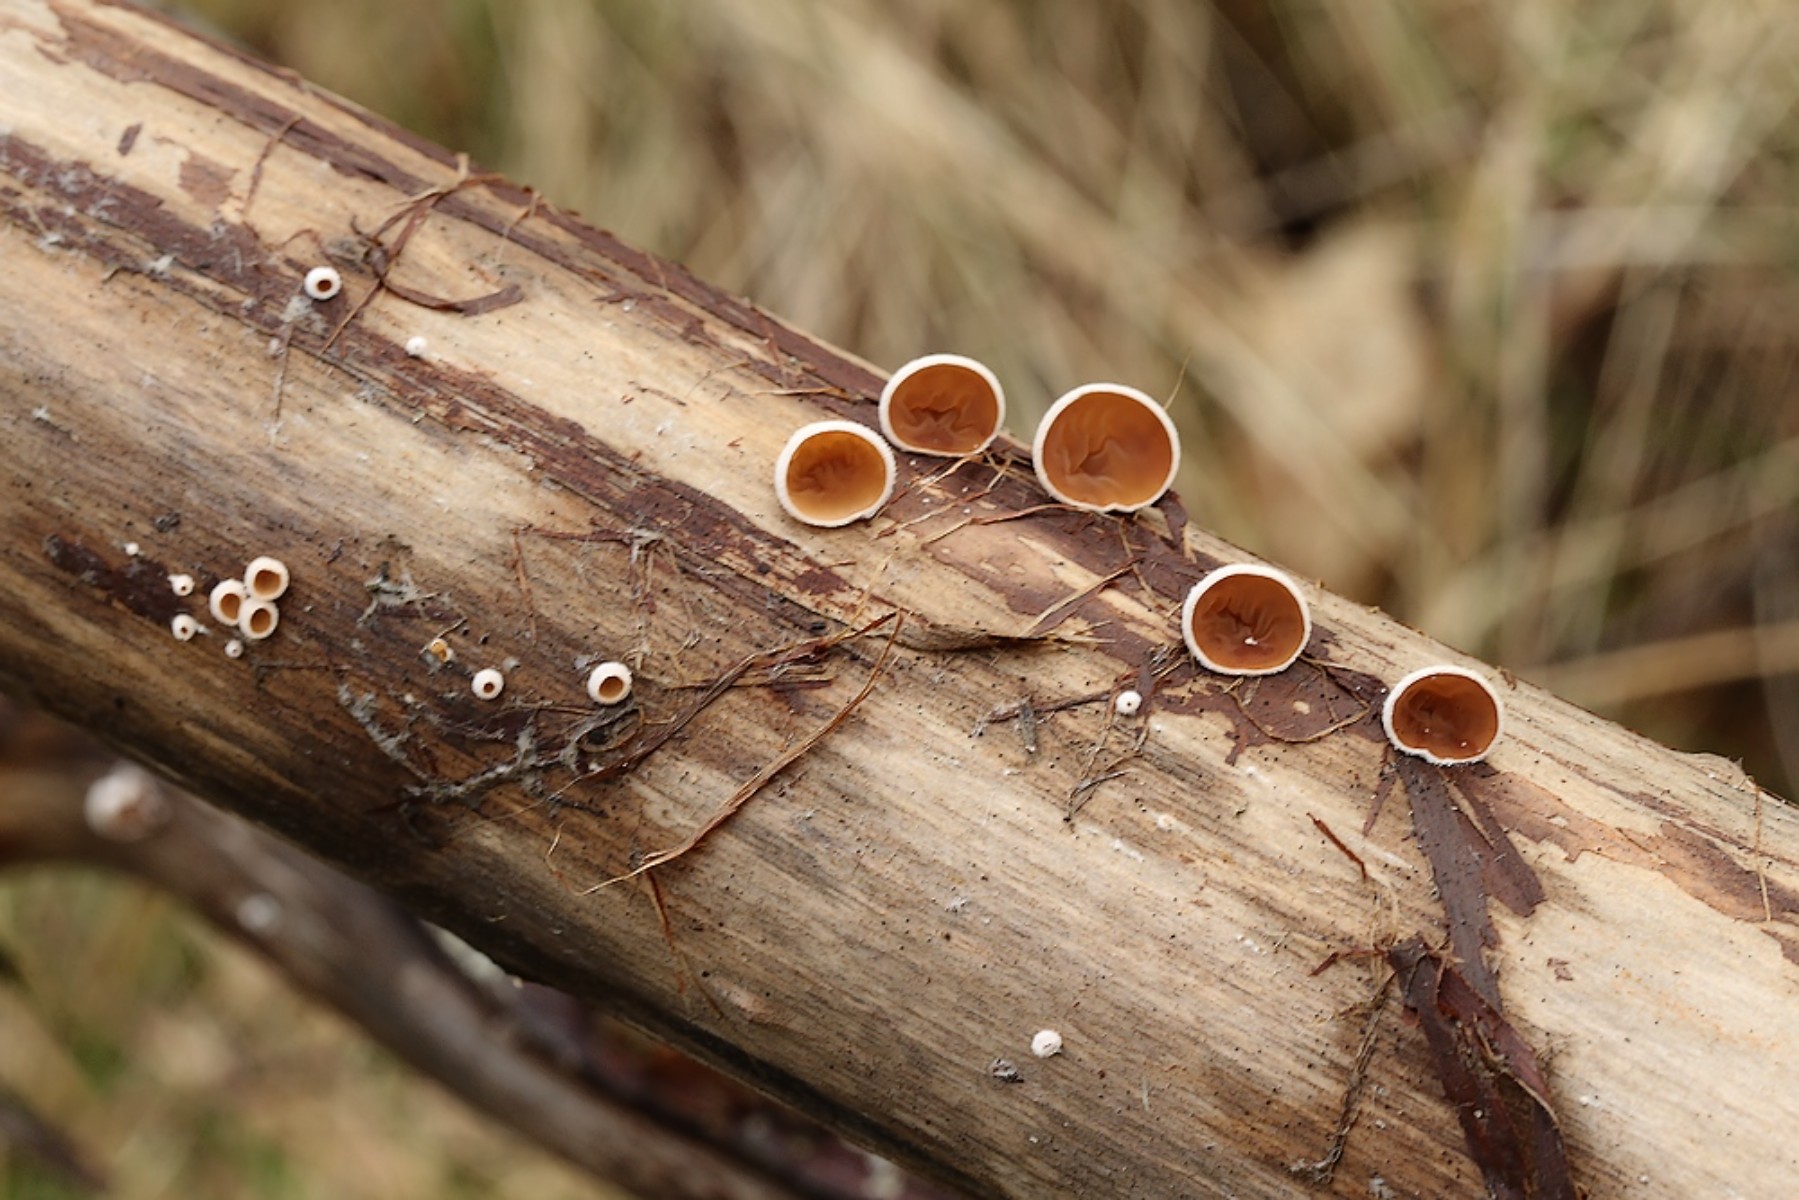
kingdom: Fungi
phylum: Basidiomycota
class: Agaricomycetes
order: Agaricales
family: Schizophyllaceae
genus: Schizophyllum
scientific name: Schizophyllum amplum
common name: poppel-hængeøre
